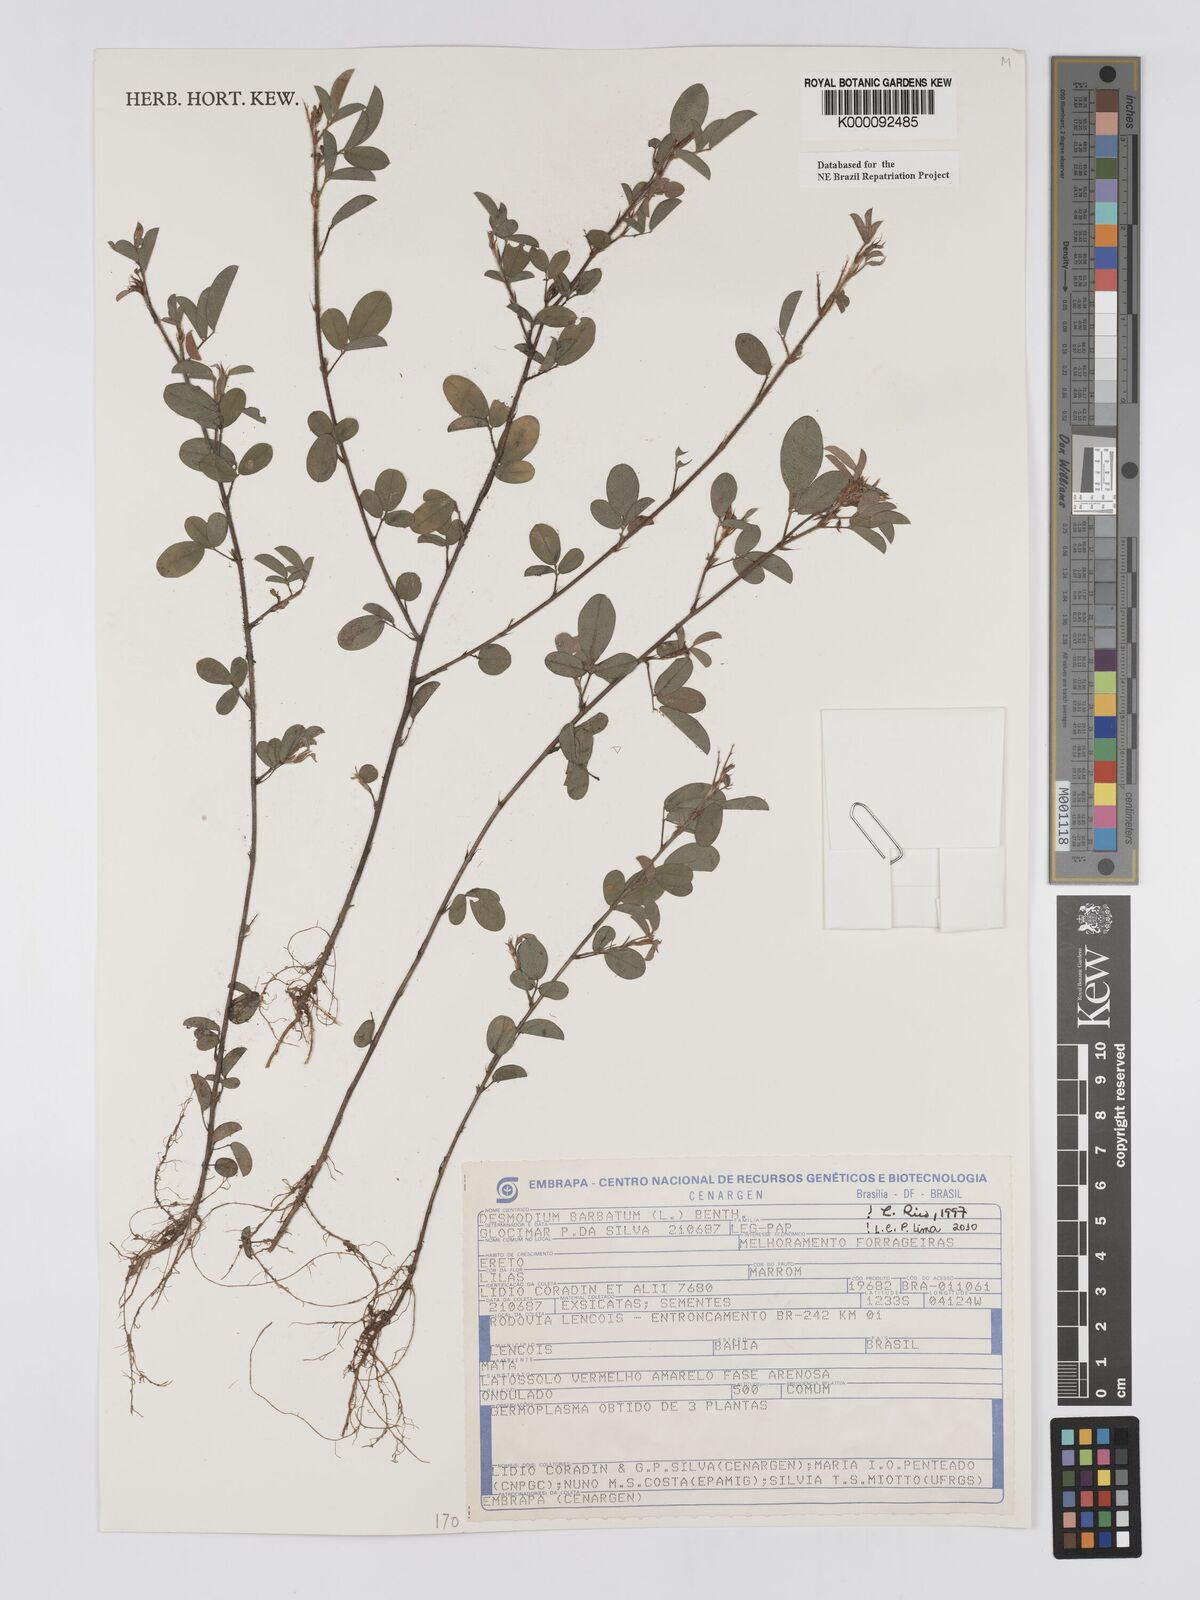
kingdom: Plantae
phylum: Tracheophyta
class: Magnoliopsida
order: Fabales
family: Fabaceae
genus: Grona
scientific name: Grona barbata
